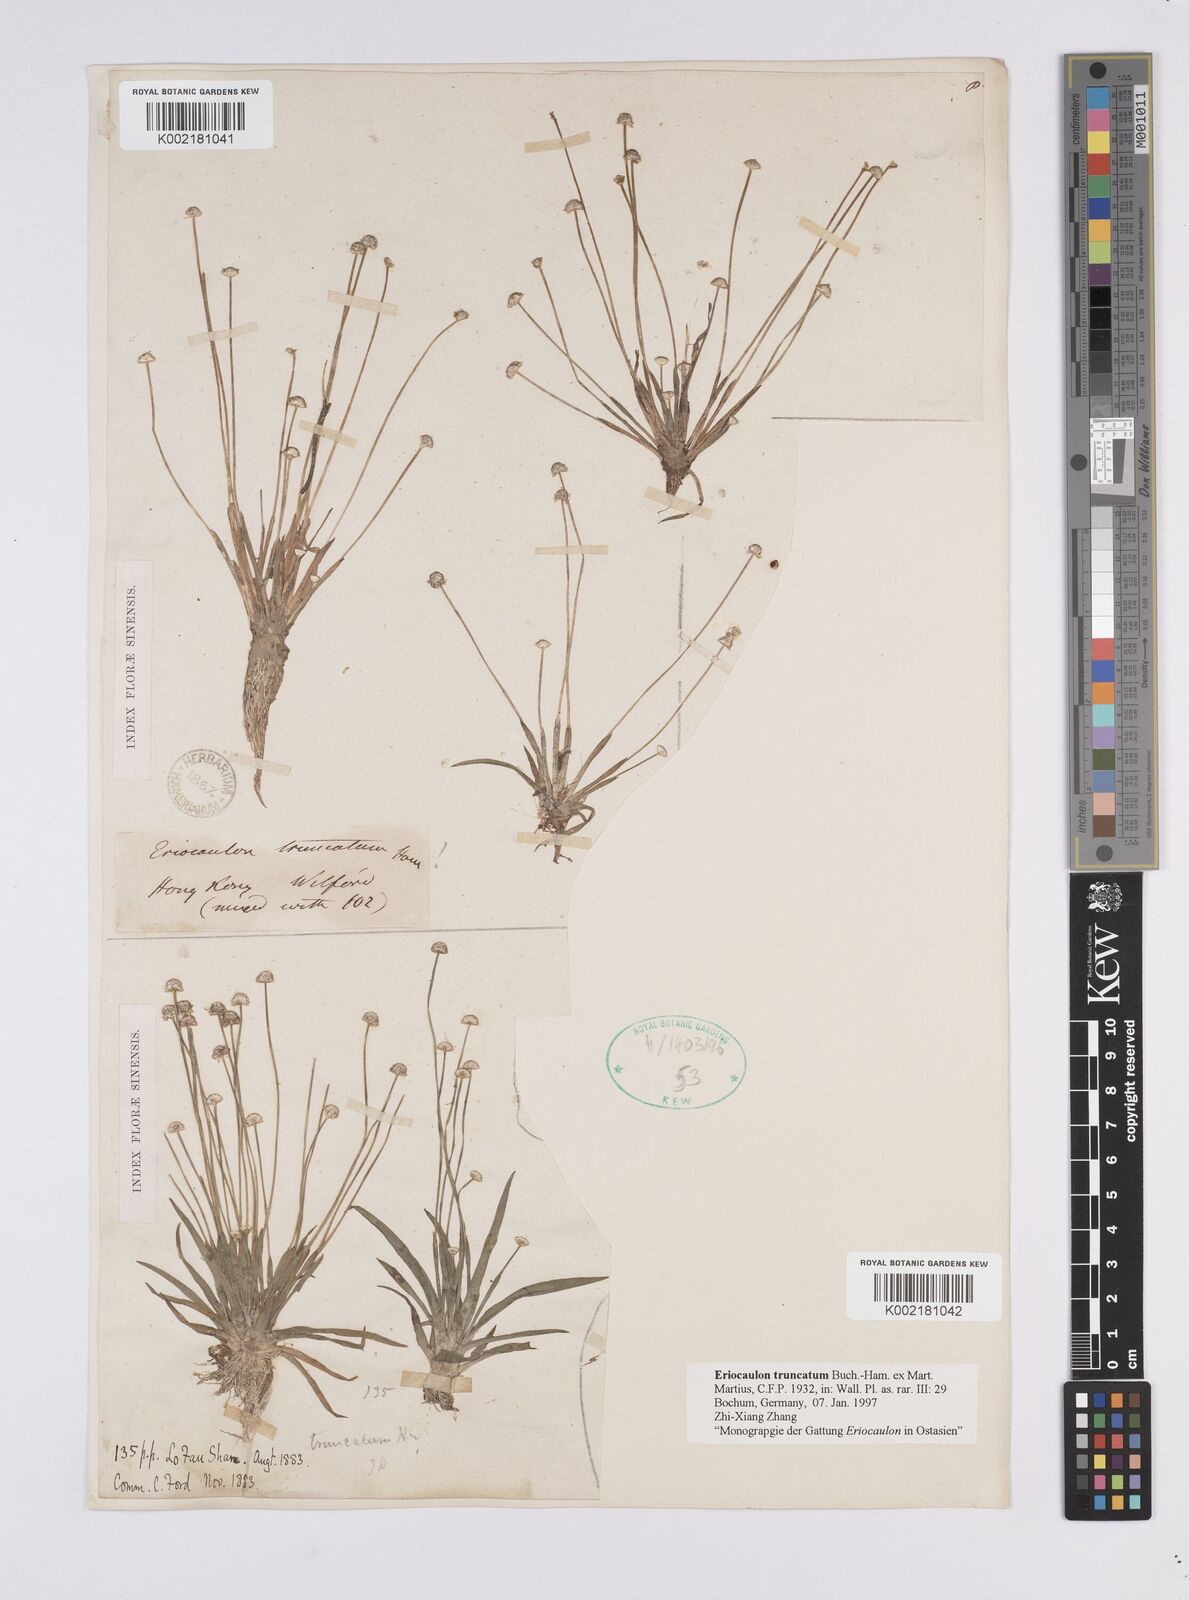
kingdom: Plantae
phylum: Tracheophyta
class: Liliopsida
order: Poales
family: Eriocaulaceae
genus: Eriocaulon
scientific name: Eriocaulon truncatum
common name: Short pipe-wort
